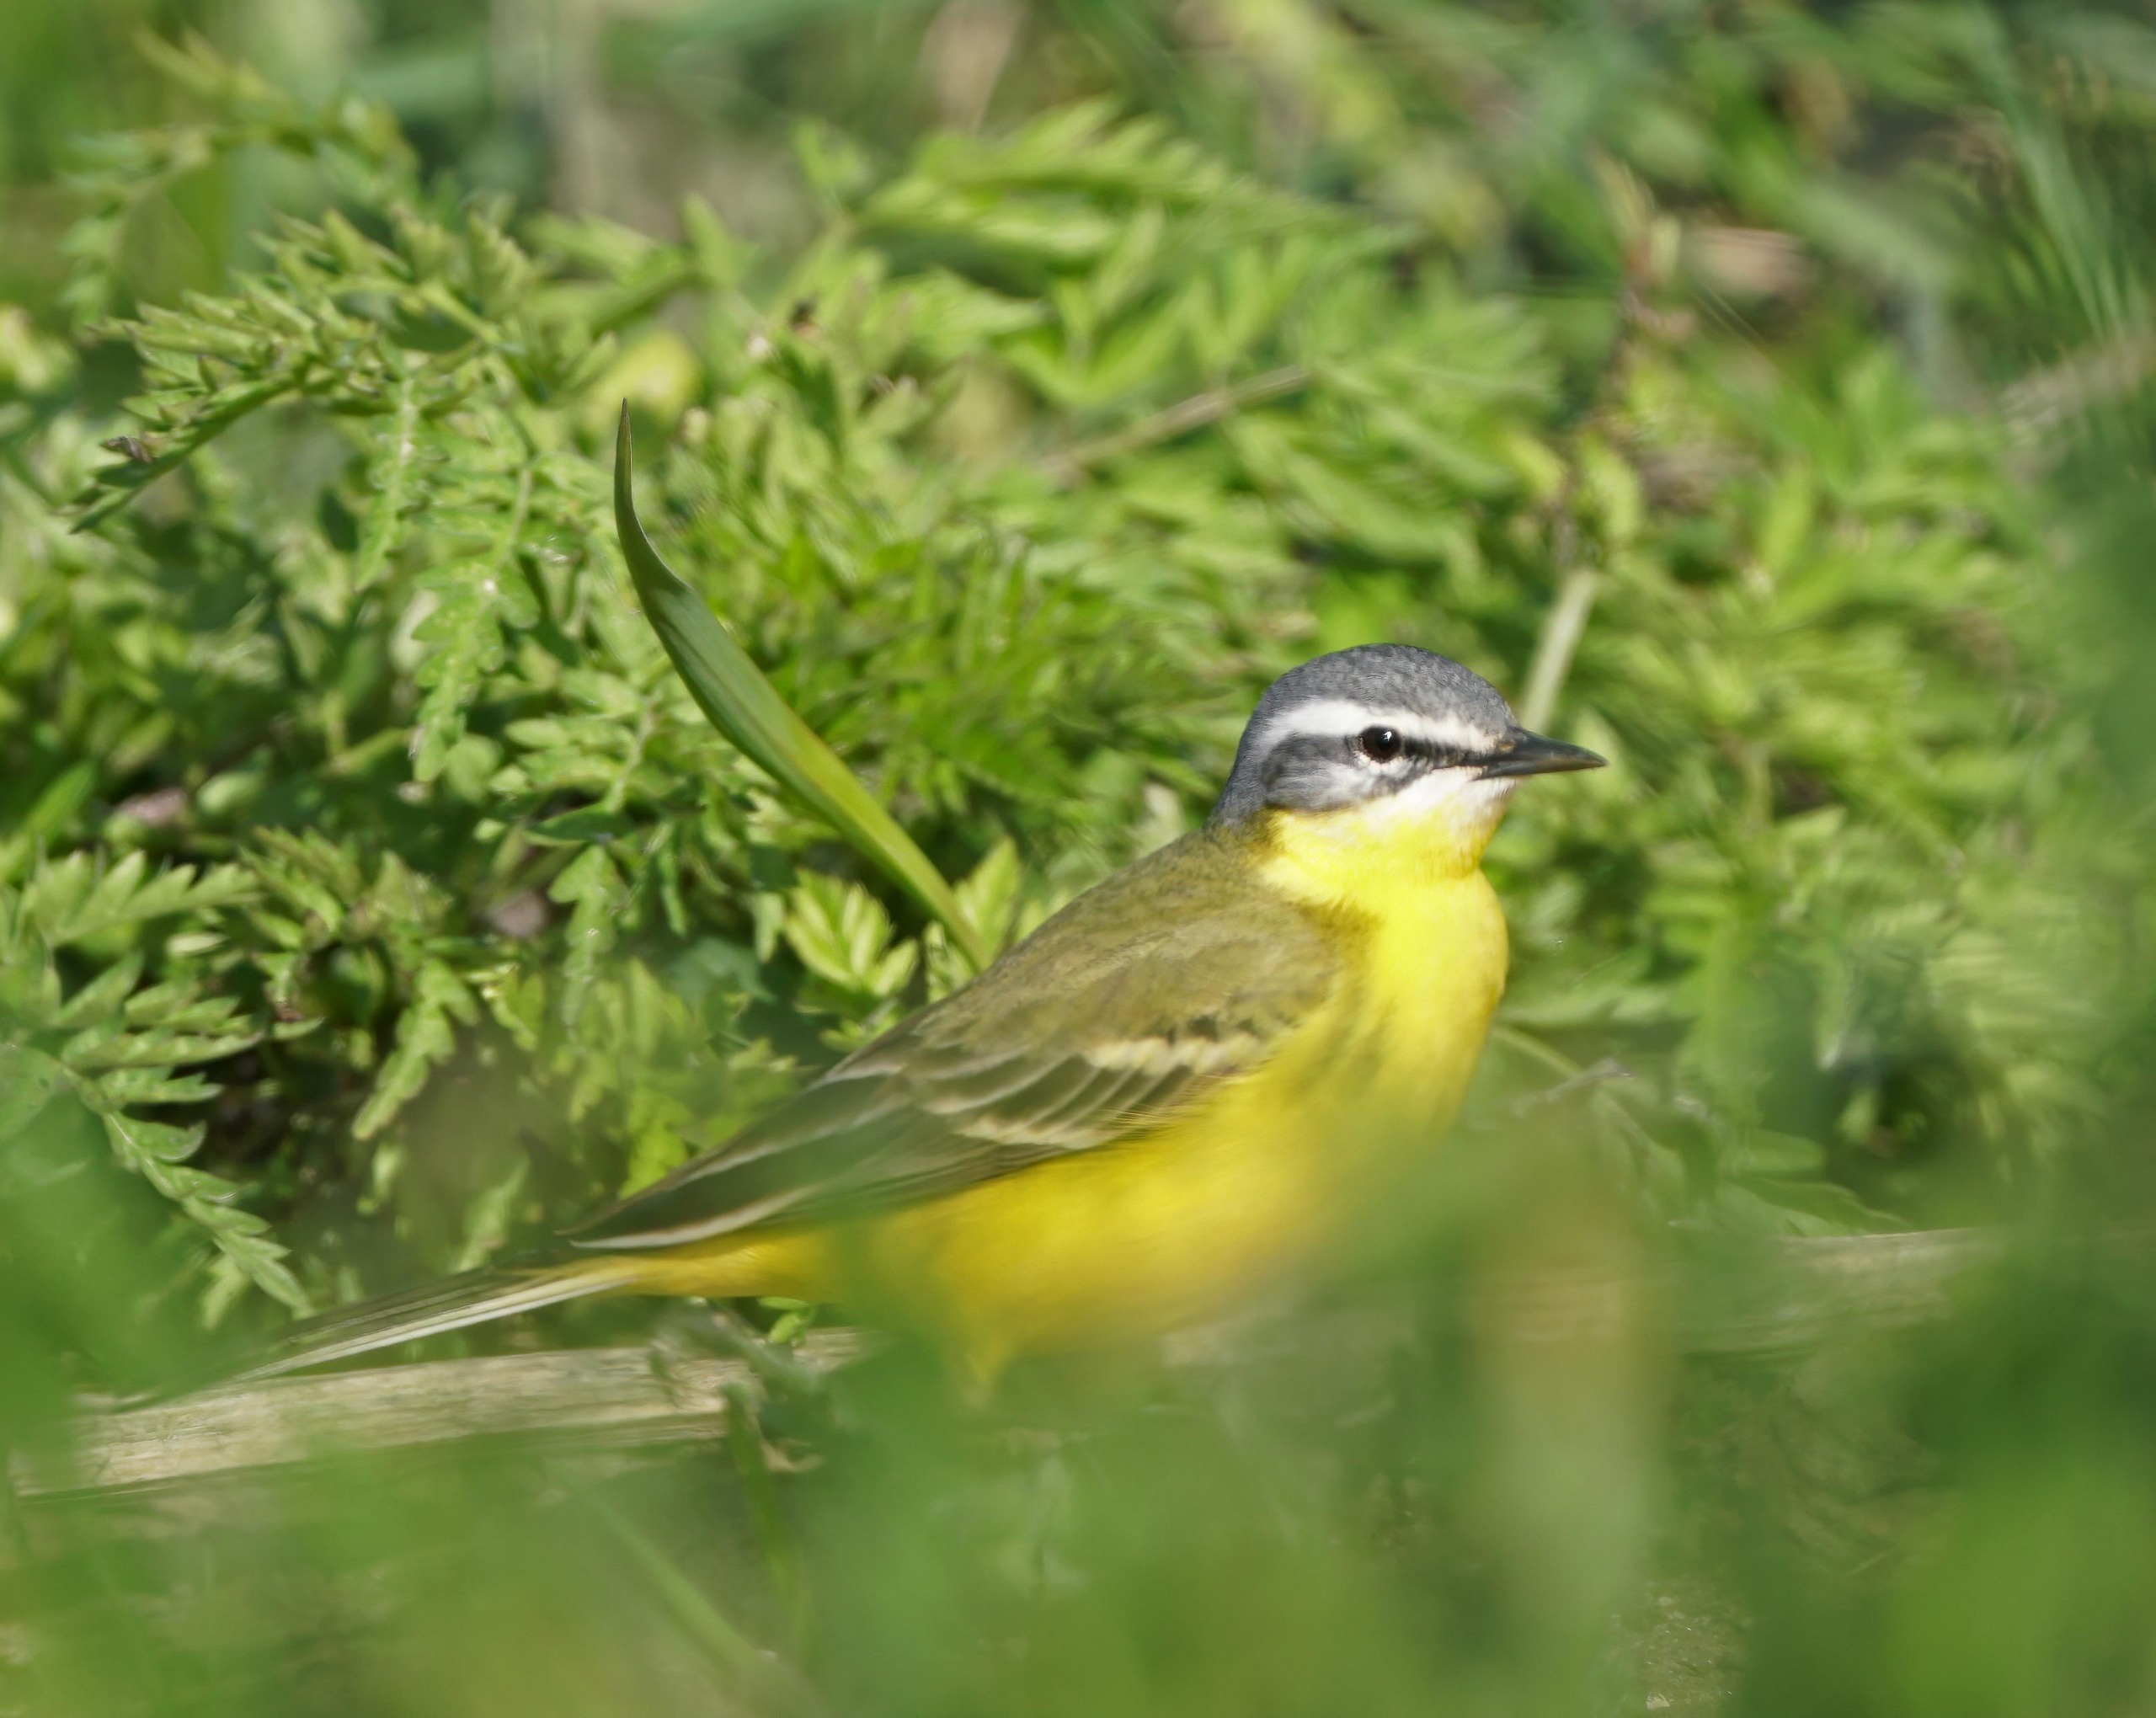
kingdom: Animalia
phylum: Chordata
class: Aves
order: Passeriformes
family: Motacillidae
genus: Motacilla
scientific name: Motacilla flava
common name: Gul vipstjert
